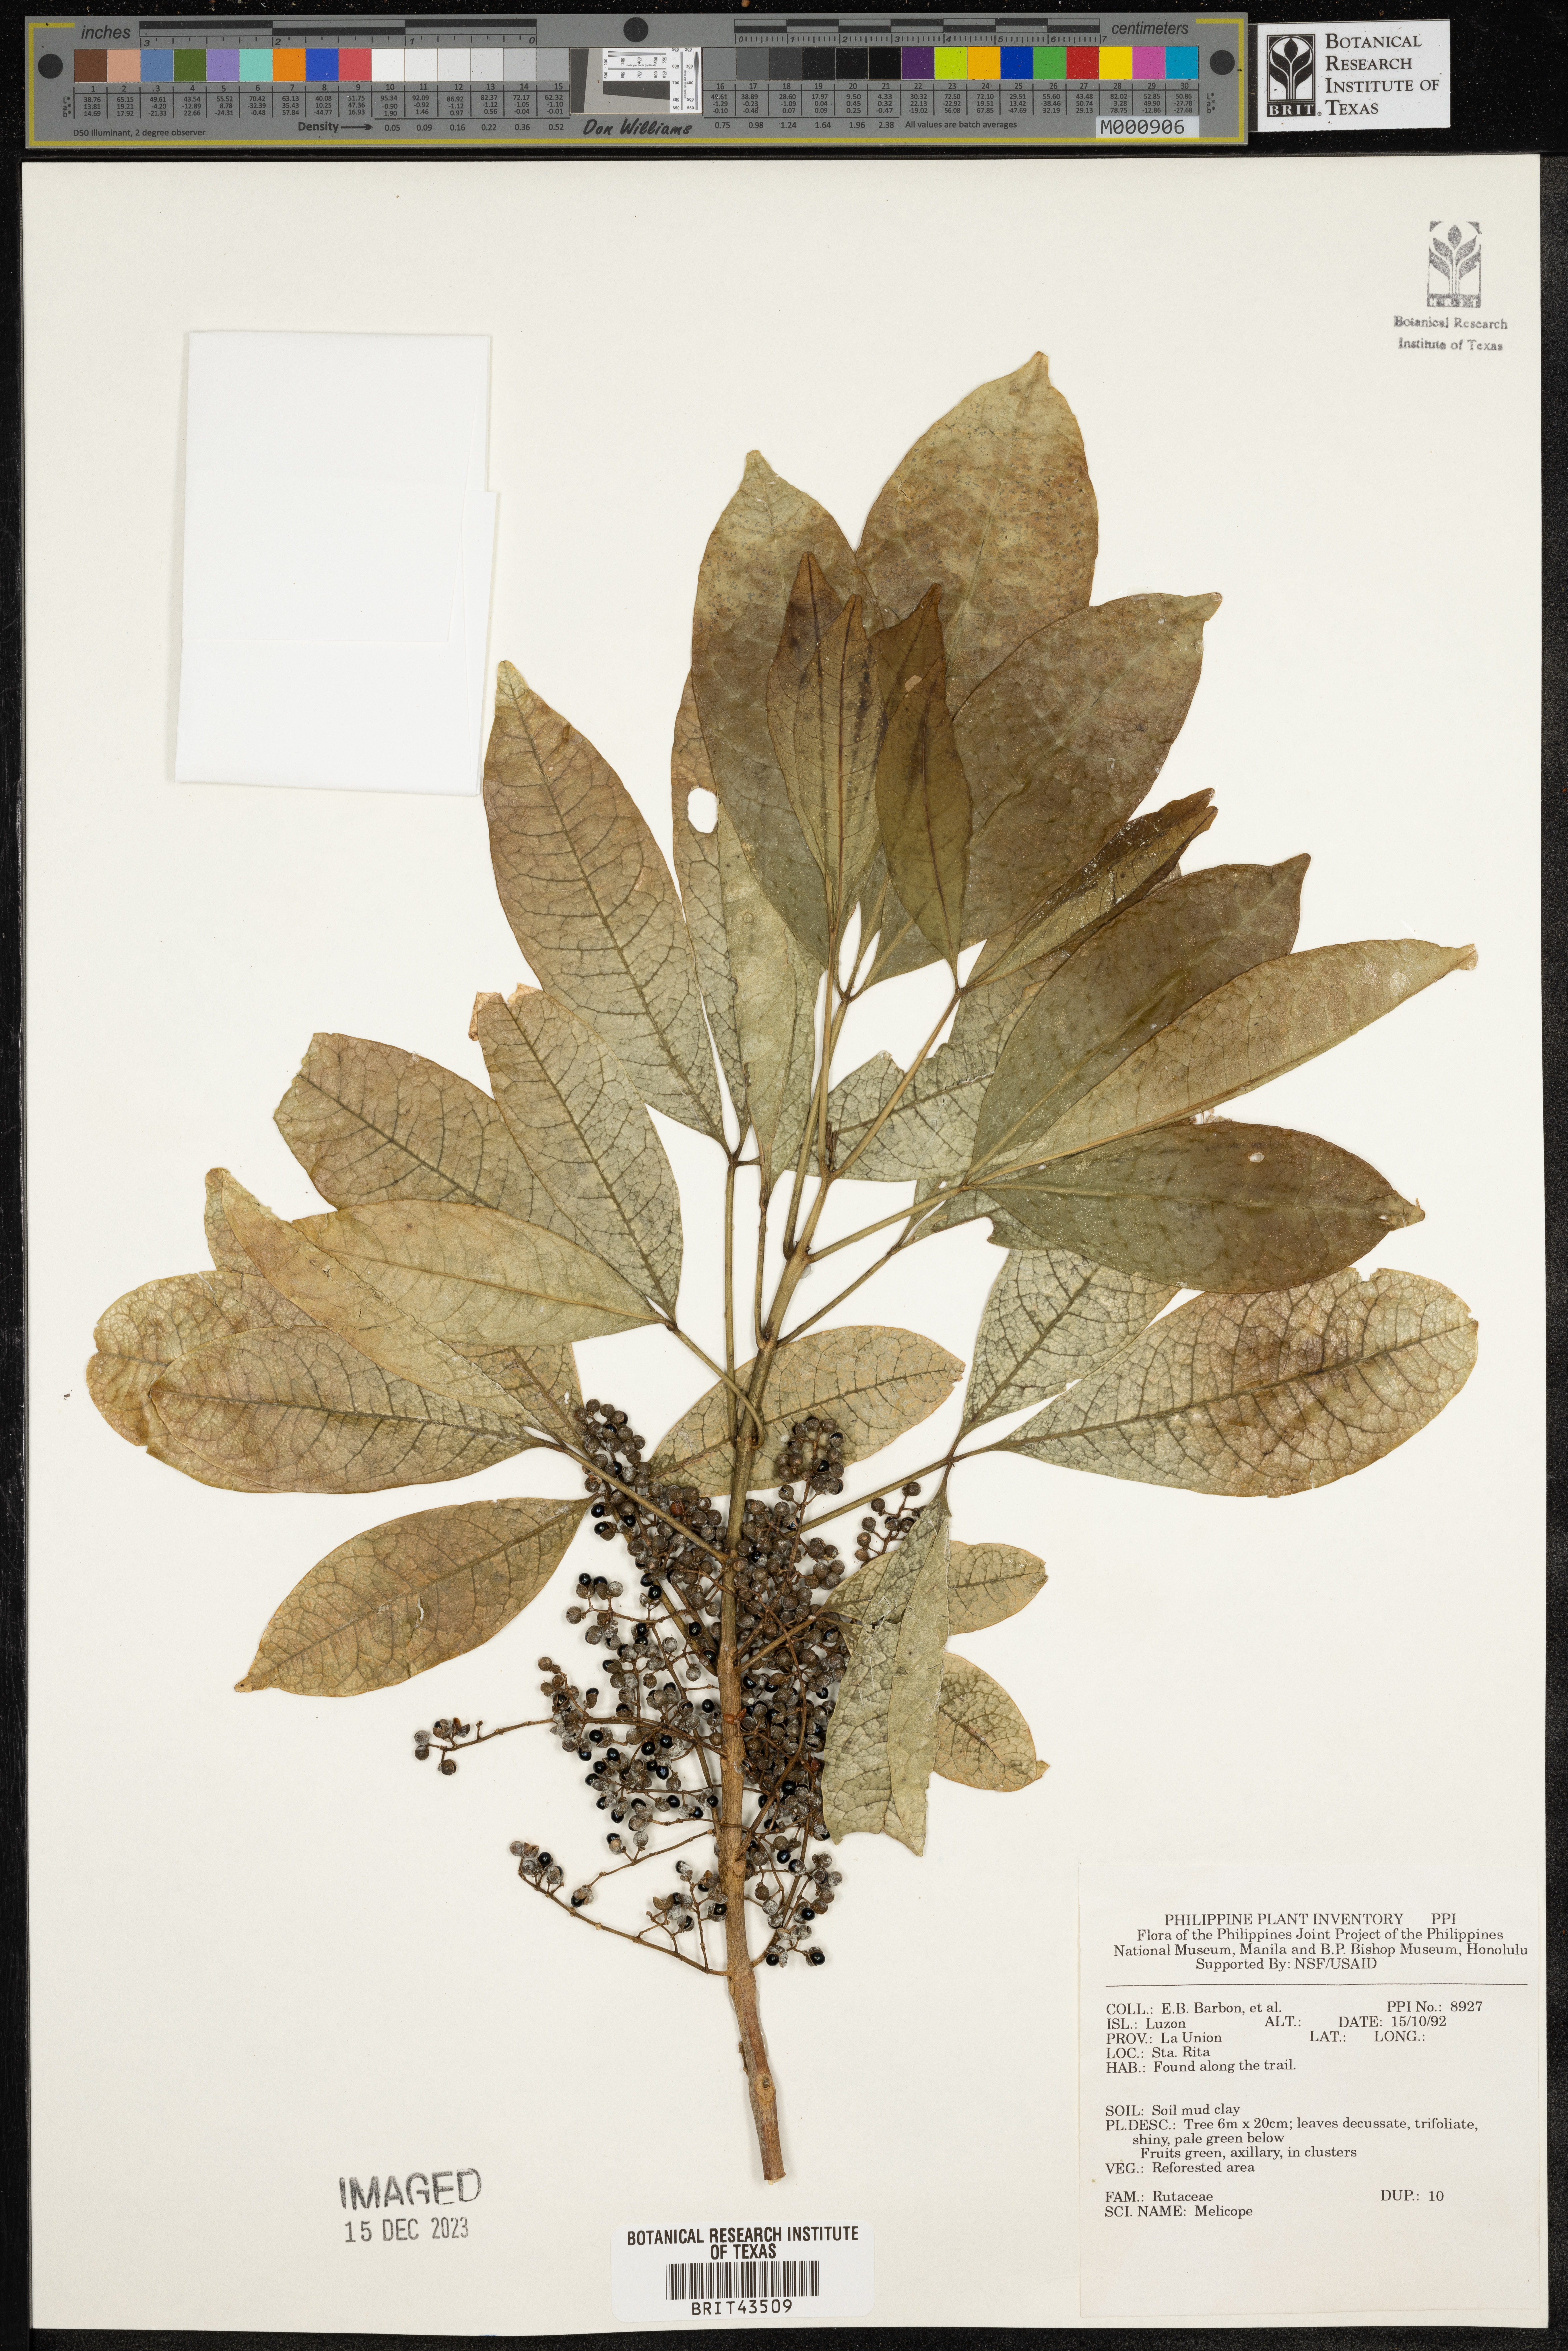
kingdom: Plantae
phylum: Tracheophyta
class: Magnoliopsida
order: Sapindales
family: Rutaceae
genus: Melicope
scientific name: Melicope
